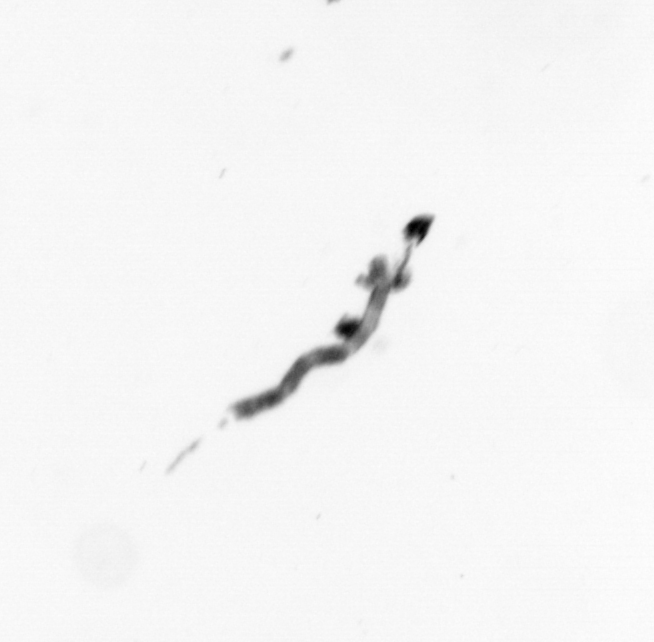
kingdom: Animalia
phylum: Cnidaria
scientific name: Cnidaria
